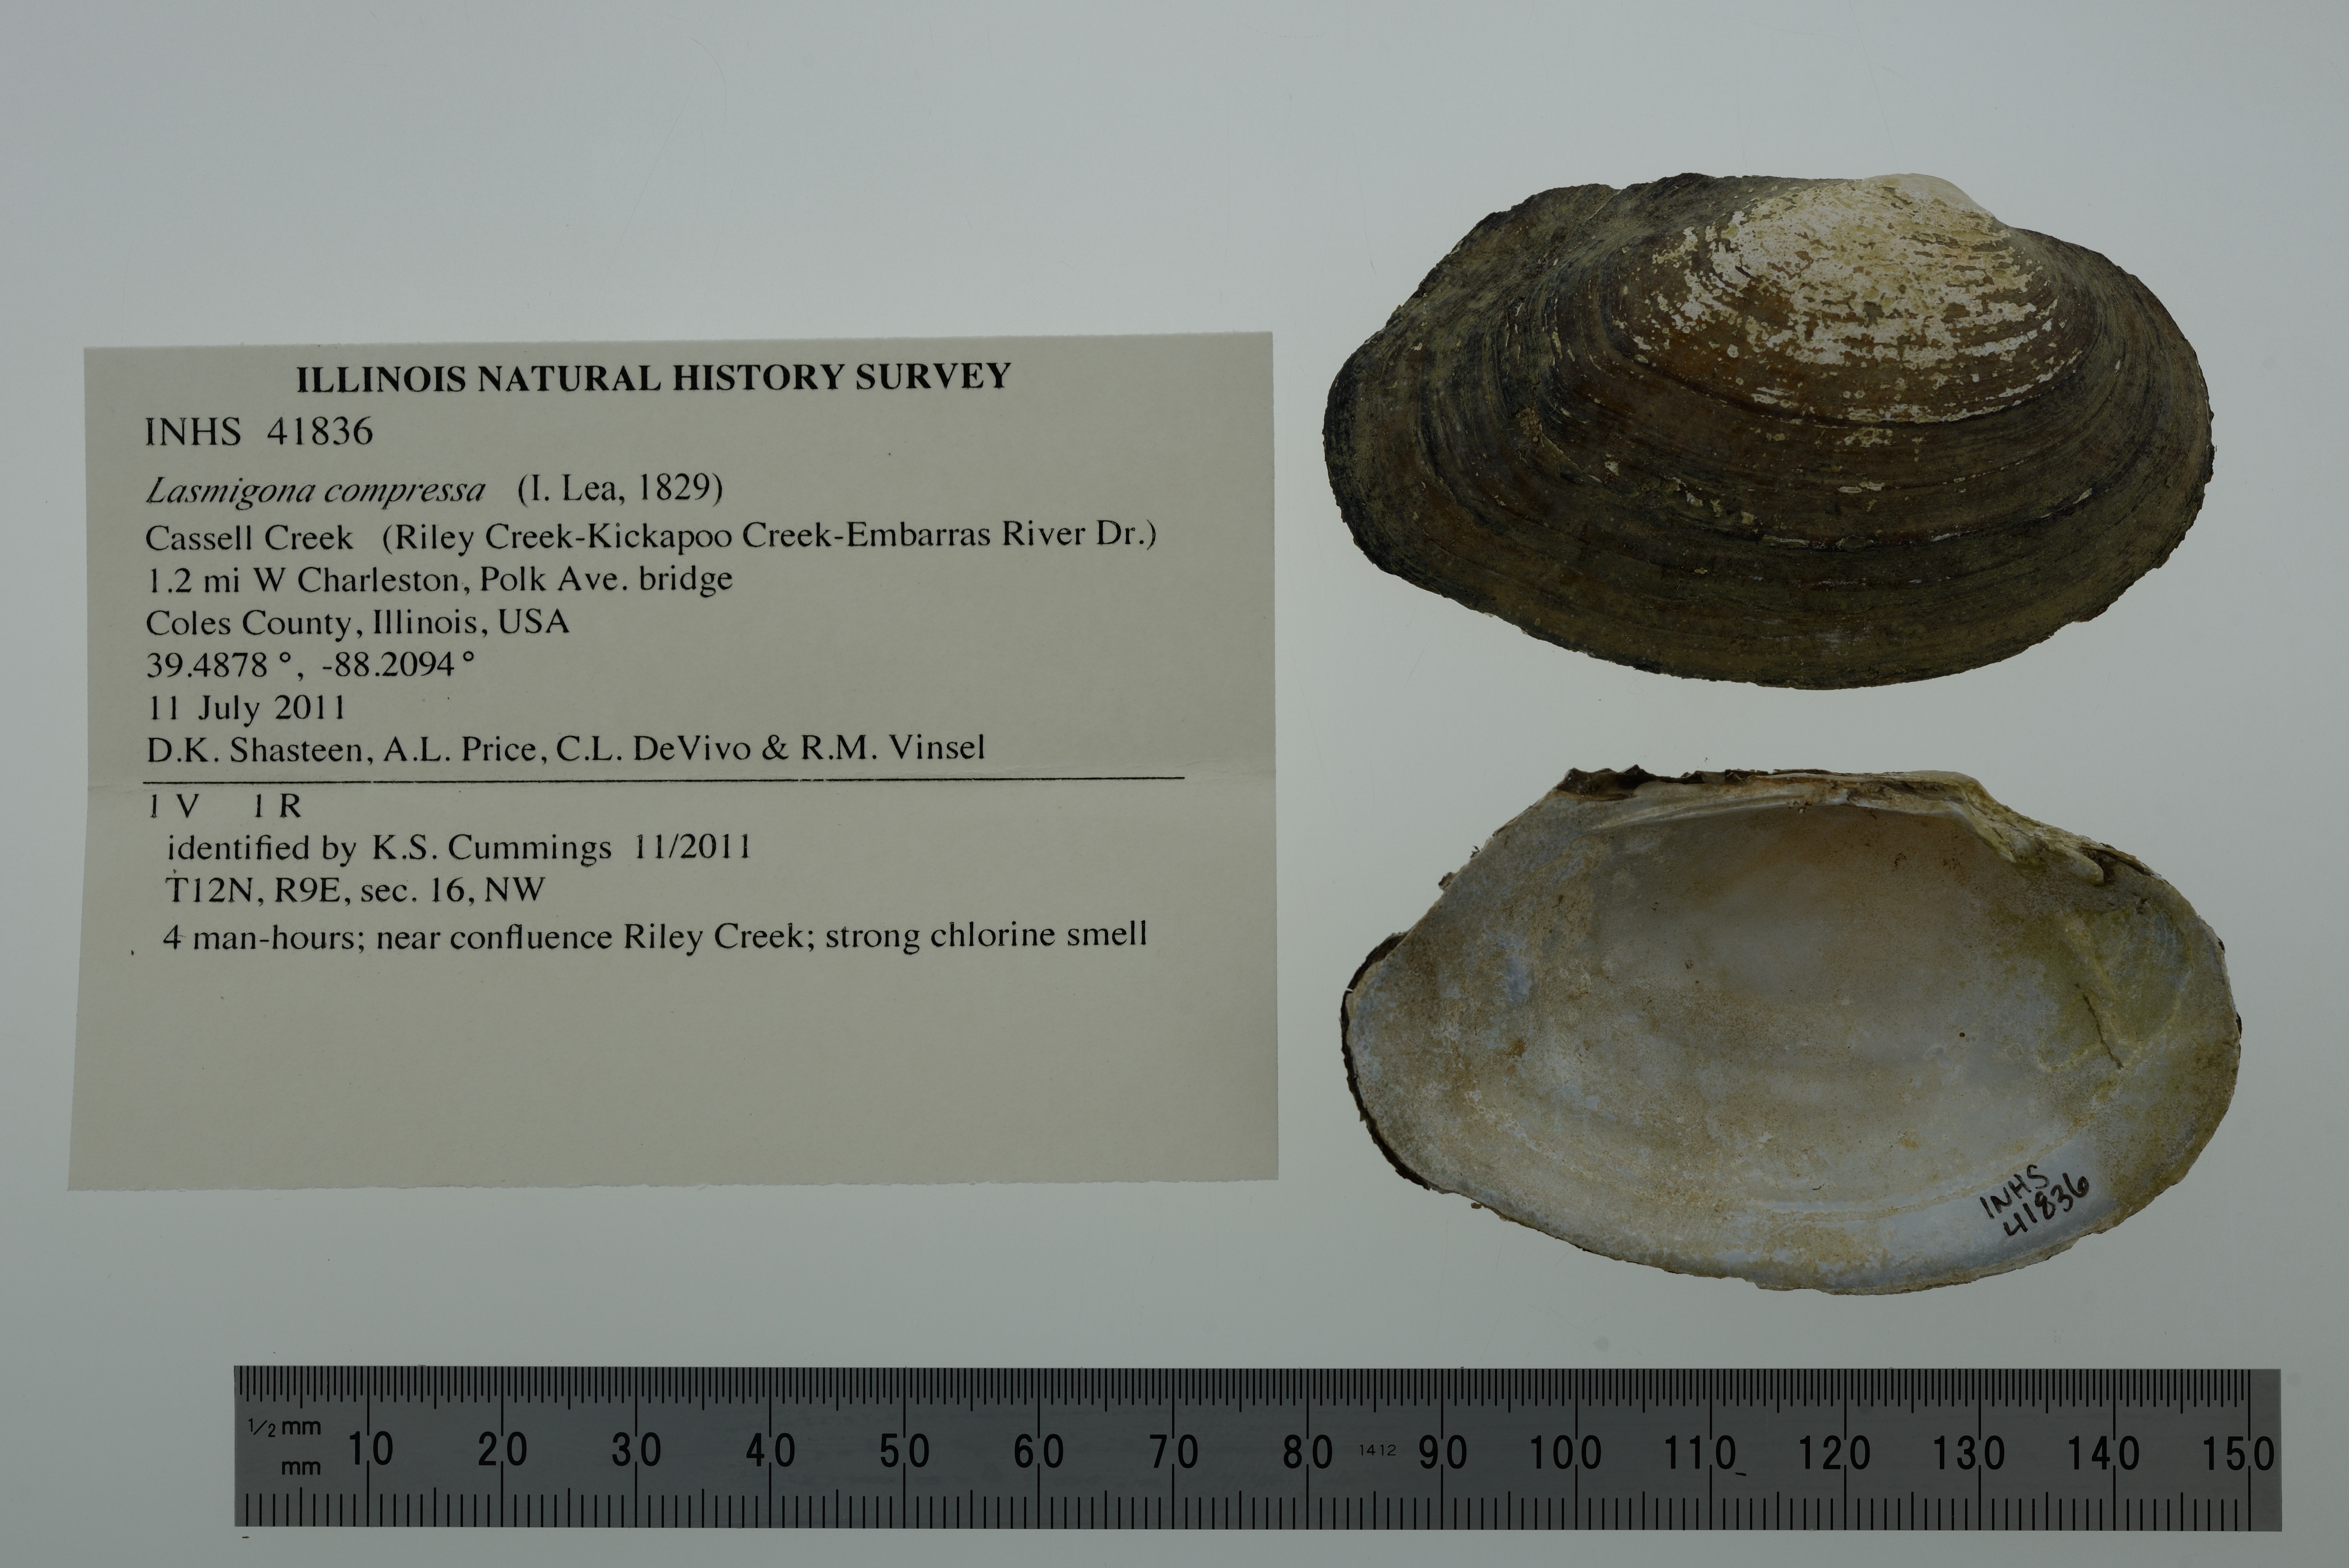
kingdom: Animalia
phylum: Mollusca
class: Bivalvia
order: Unionida
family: Unionidae
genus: Lasmigona
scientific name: Lasmigona compressa
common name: Creek heelsplitter
